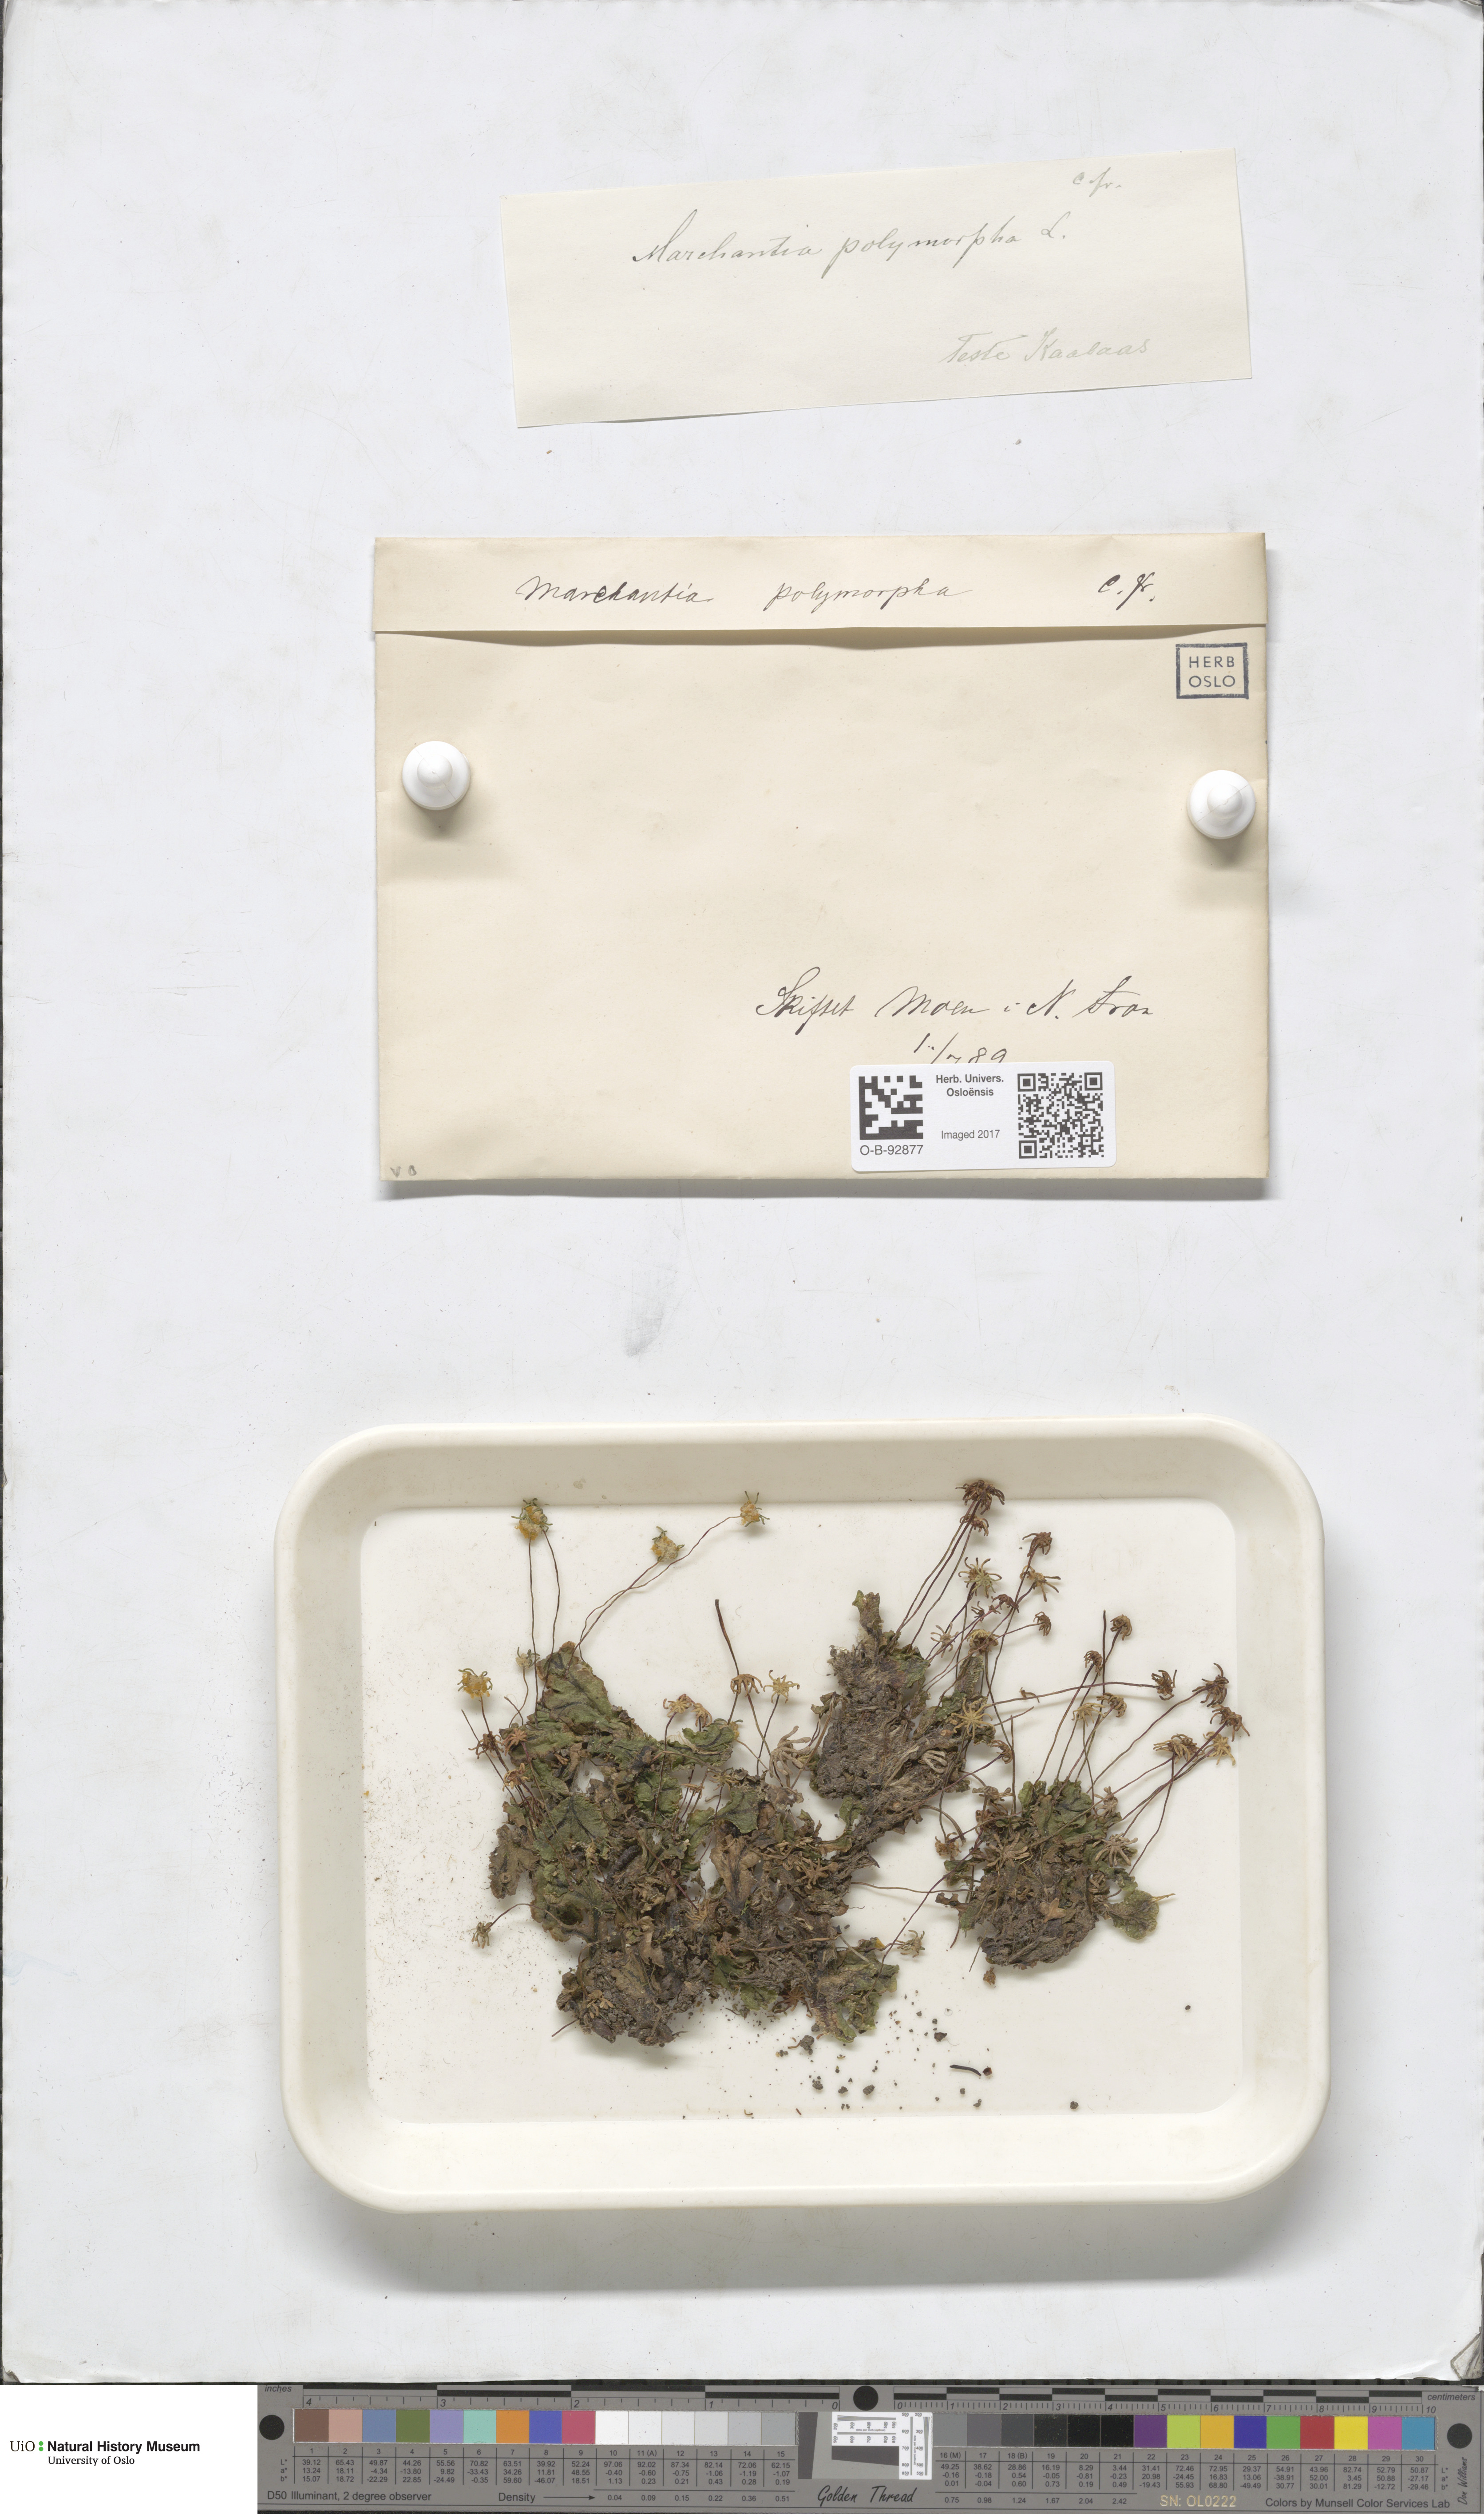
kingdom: Plantae
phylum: Marchantiophyta
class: Marchantiopsida
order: Marchantiales
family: Marchantiaceae
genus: Marchantia
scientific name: Marchantia polymorpha
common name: Common liverwort
